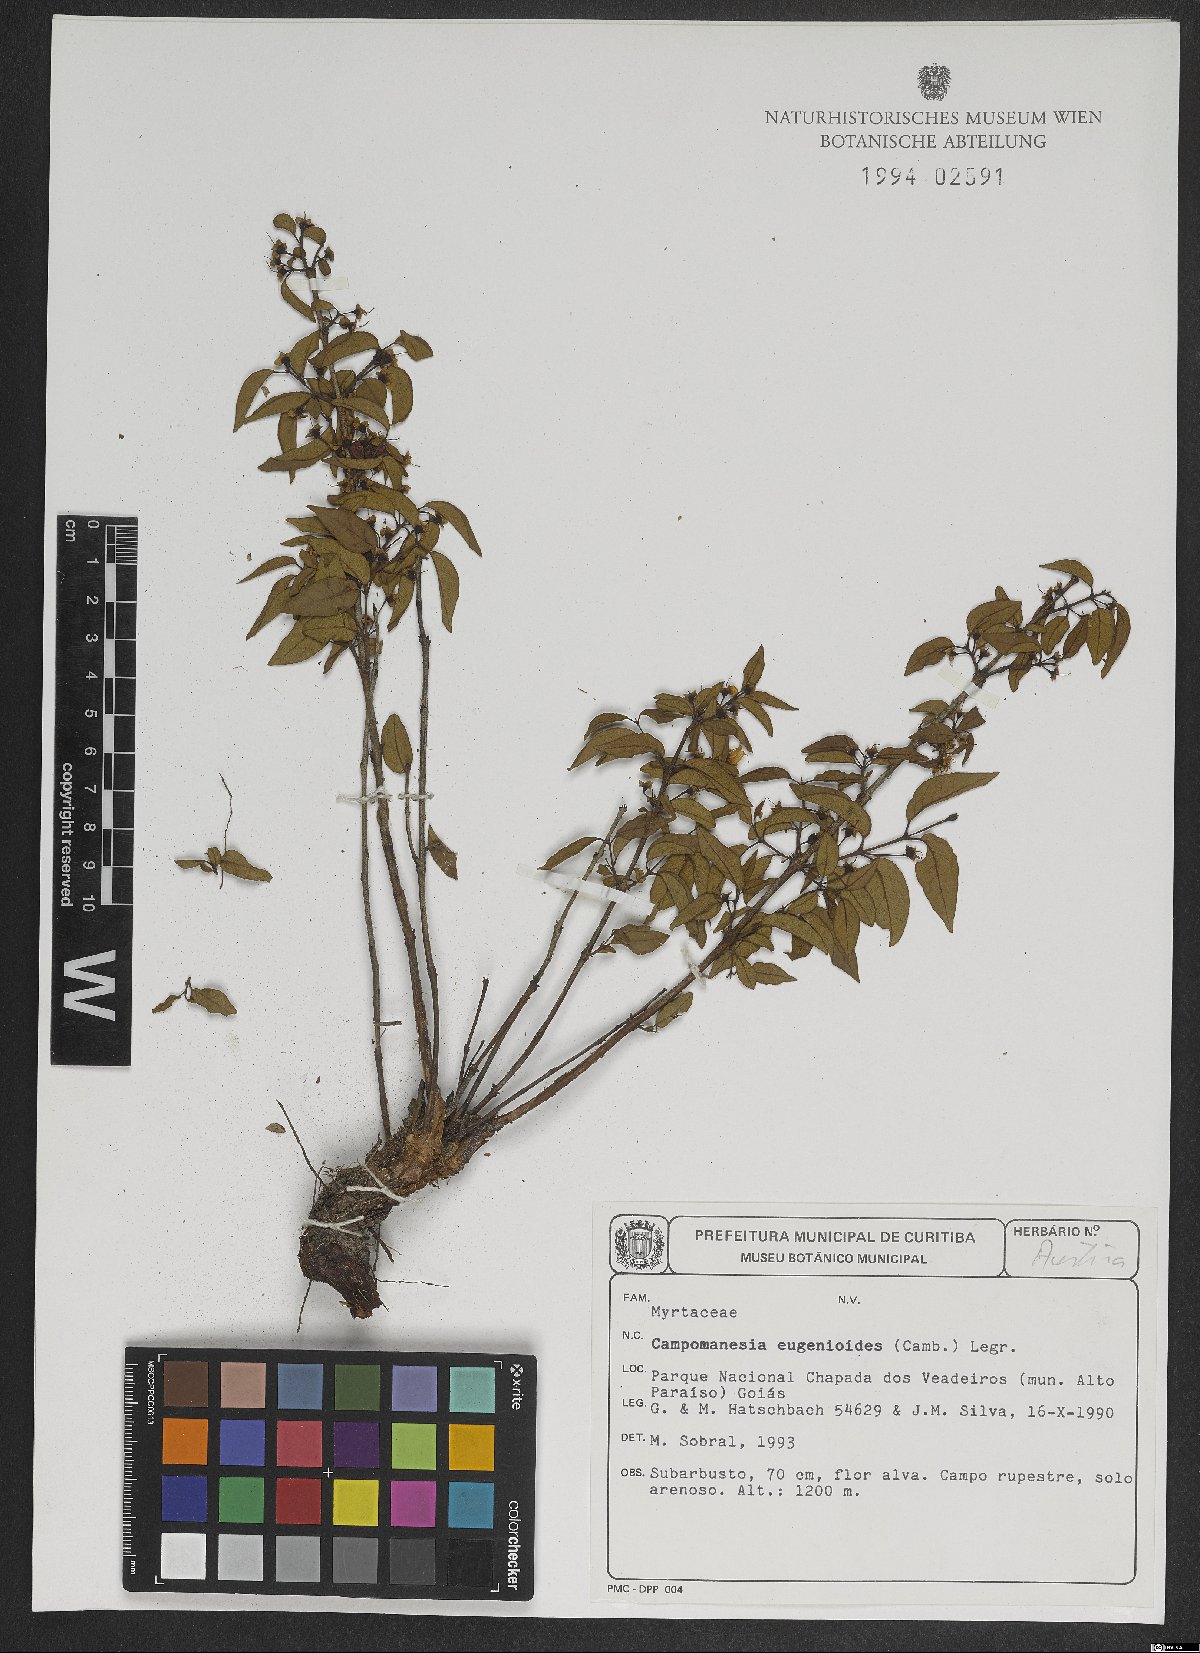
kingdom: Plantae
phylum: Tracheophyta
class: Magnoliopsida
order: Myrtales
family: Myrtaceae
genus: Campomanesia
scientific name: Campomanesia eugenioides
